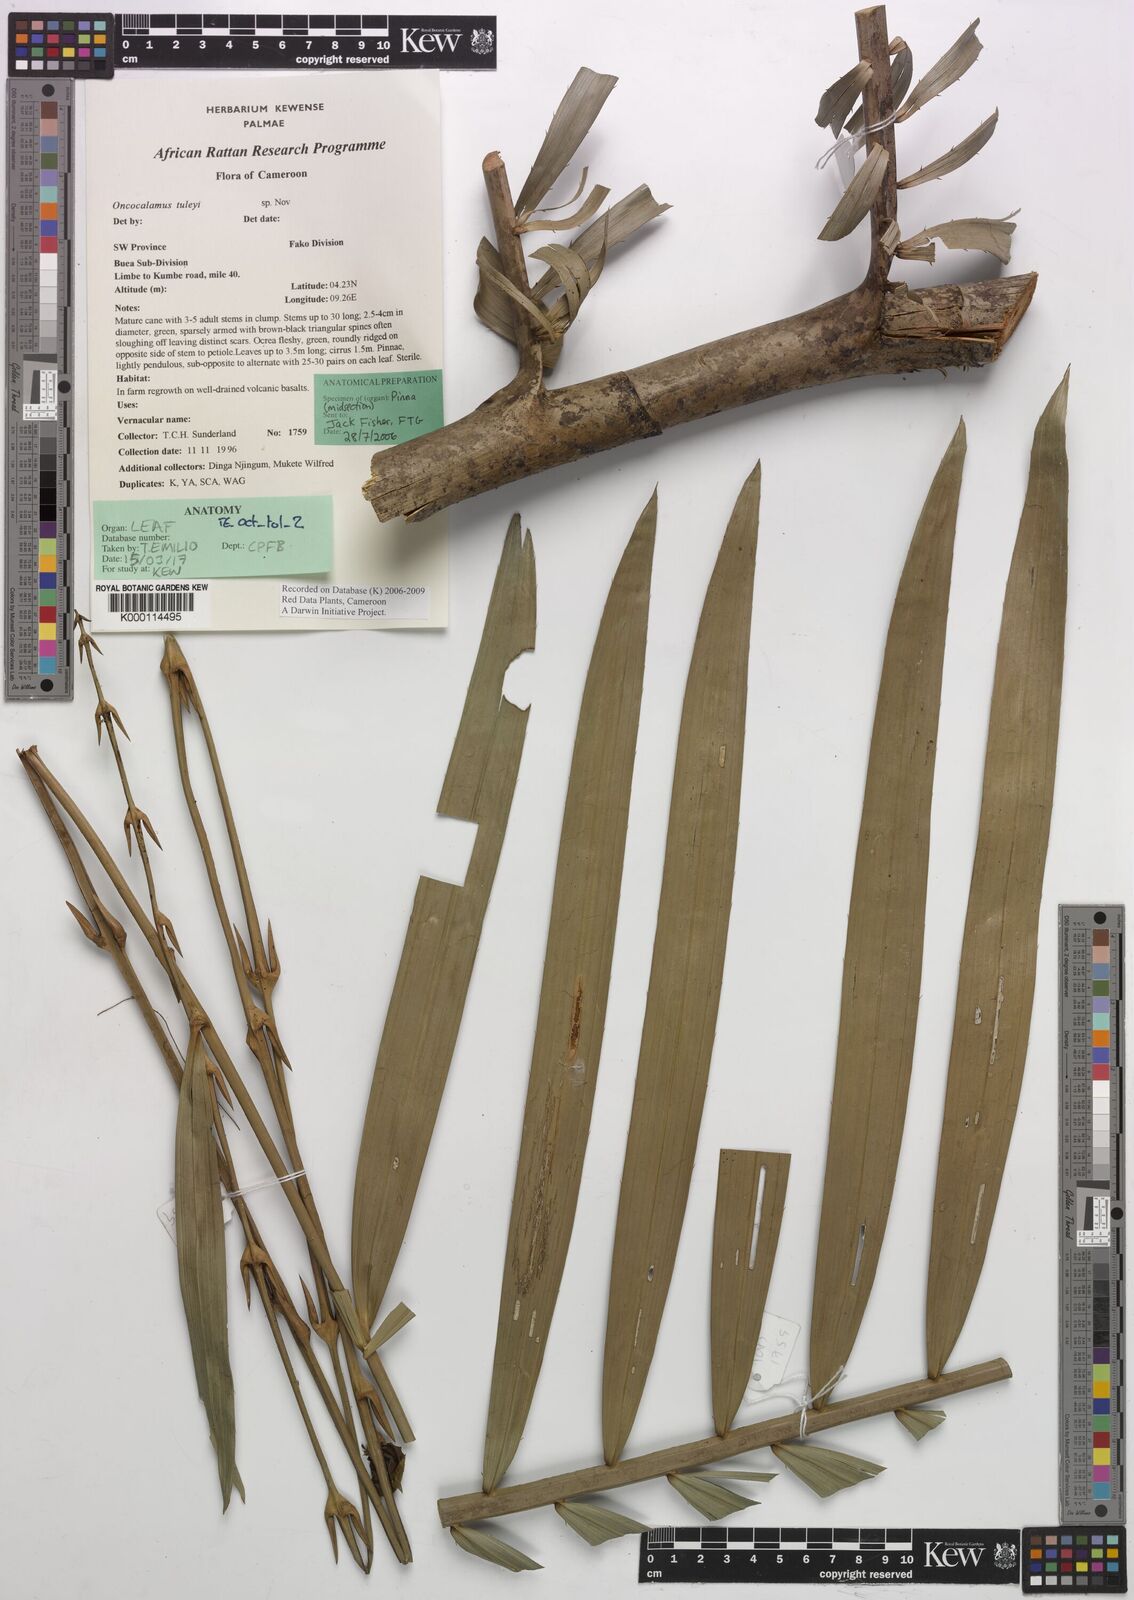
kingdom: Plantae
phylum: Tracheophyta
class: Liliopsida
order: Arecales
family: Arecaceae
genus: Oncocalamus
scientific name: Oncocalamus tuleyi
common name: Rattan
